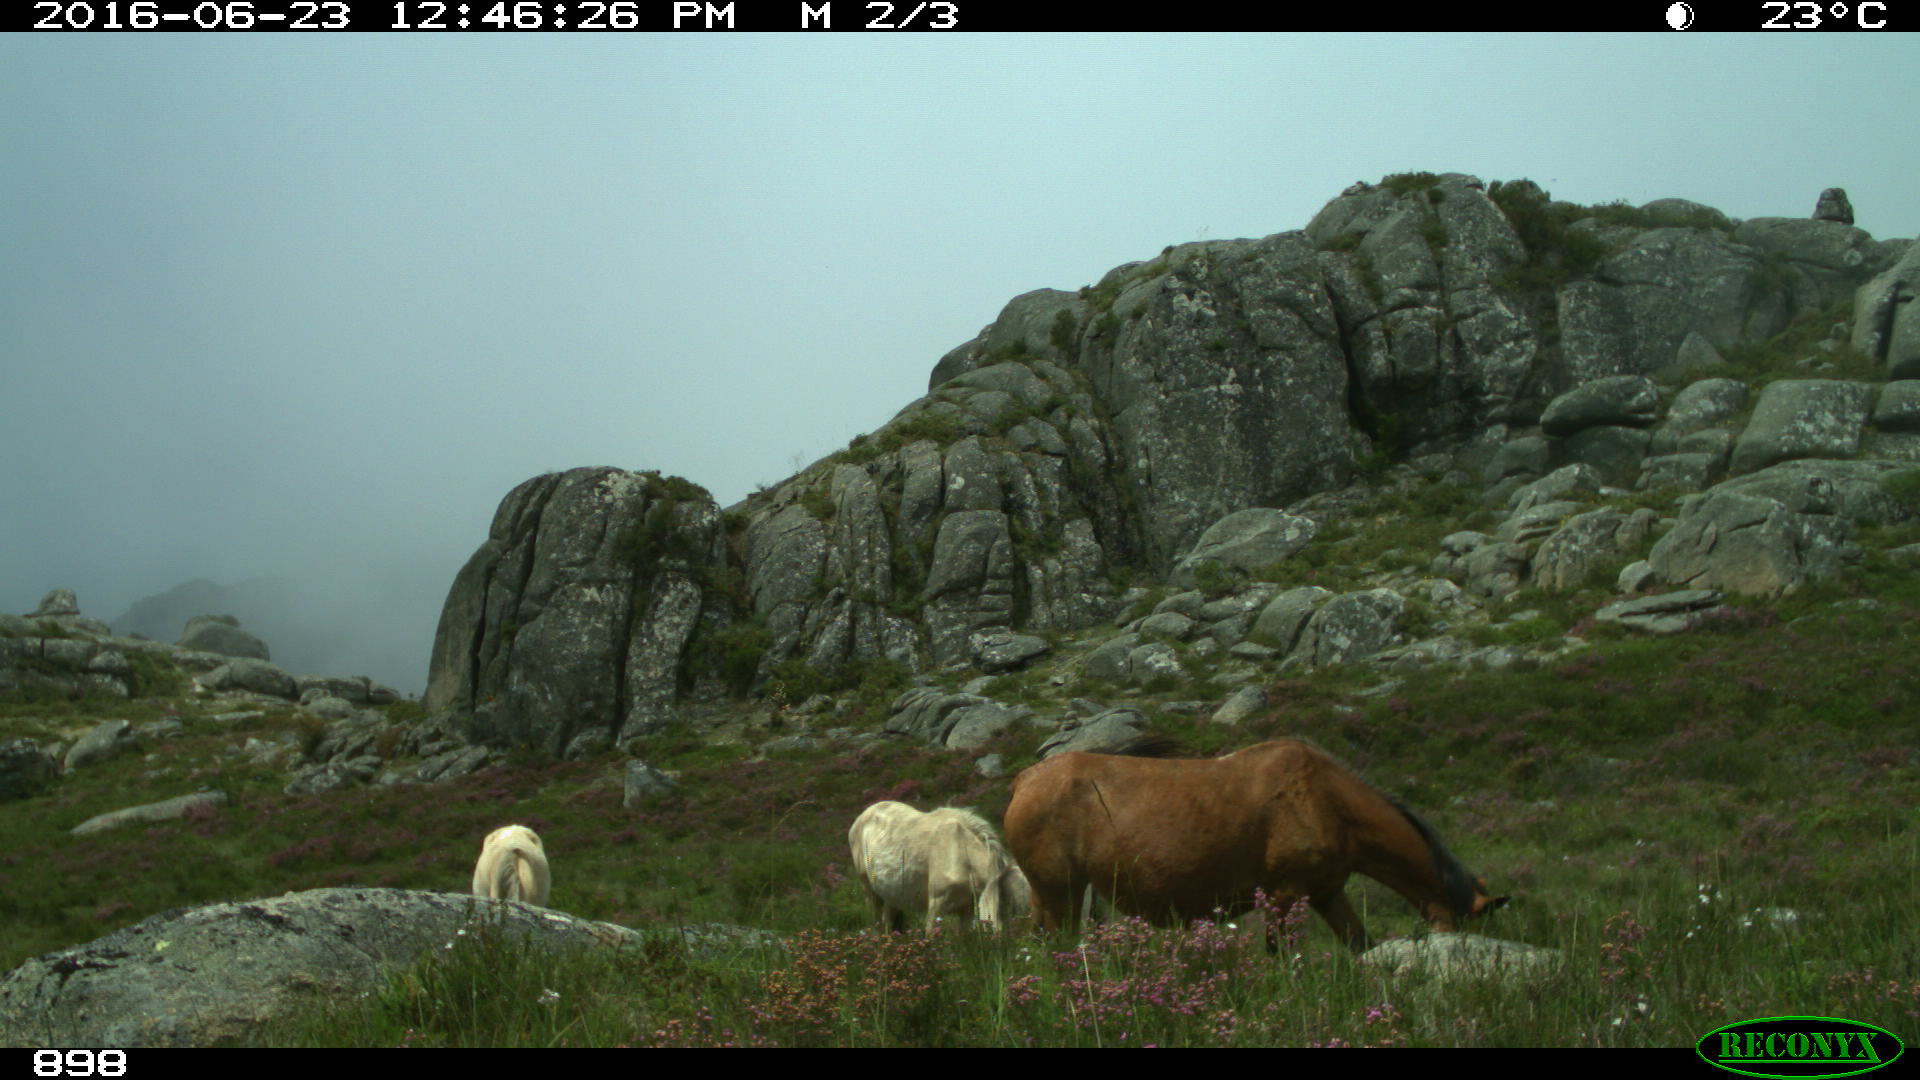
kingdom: Animalia
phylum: Chordata
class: Mammalia
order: Perissodactyla
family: Equidae
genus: Equus
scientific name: Equus caballus
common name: Horse
